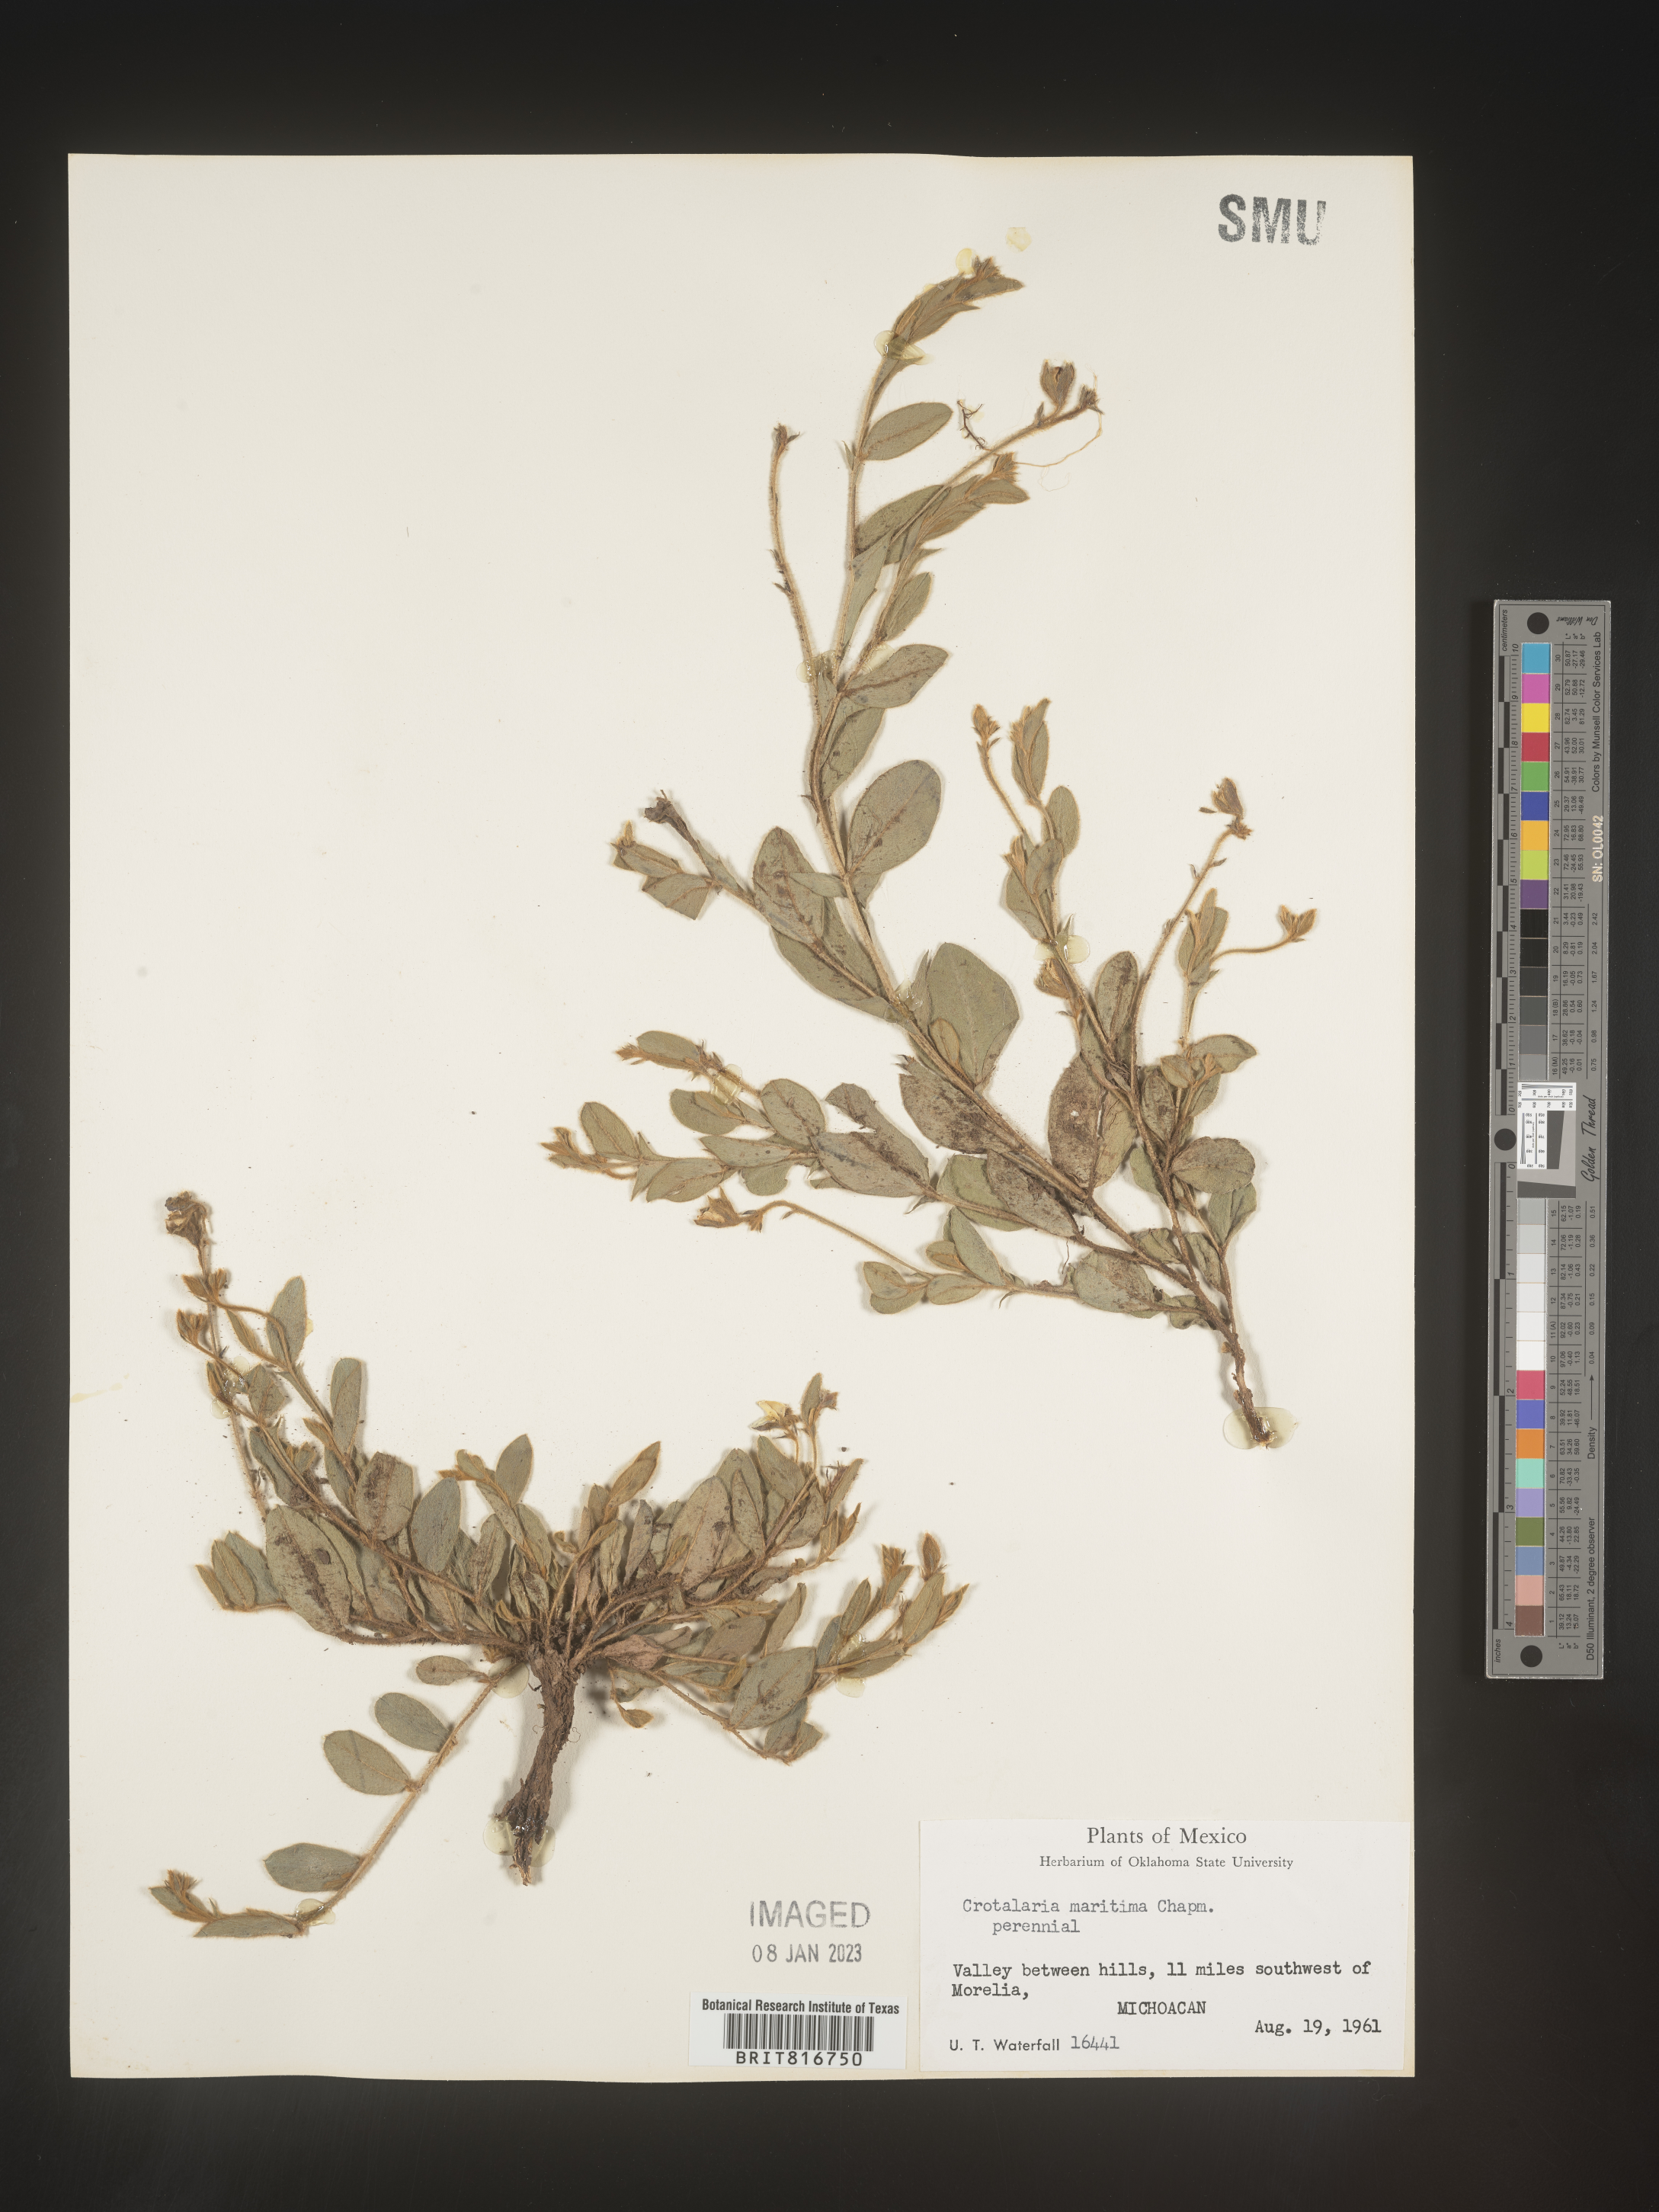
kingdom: Plantae
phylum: Tracheophyta
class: Magnoliopsida
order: Fabales
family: Fabaceae
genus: Crotalaria
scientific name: Crotalaria
